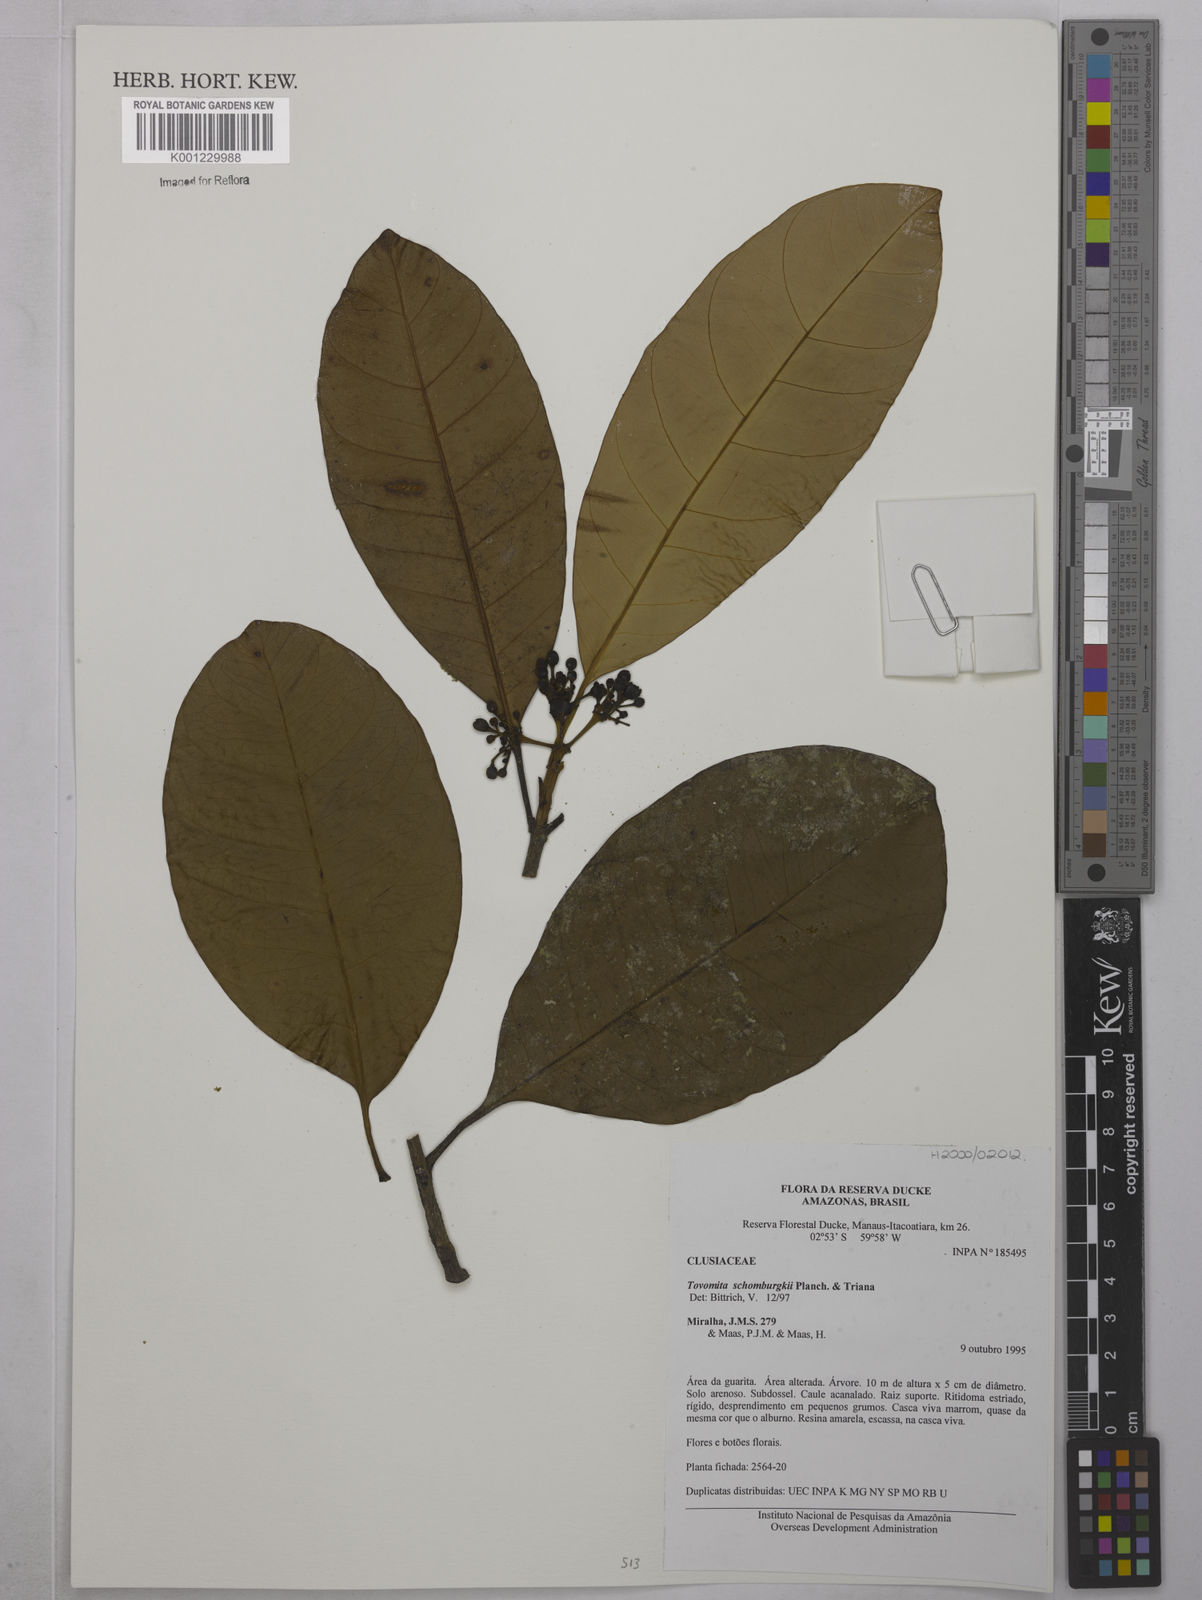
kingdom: Plantae
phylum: Tracheophyta
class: Magnoliopsida
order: Malpighiales
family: Clusiaceae
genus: Tovomita
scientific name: Tovomita schomburgkii
